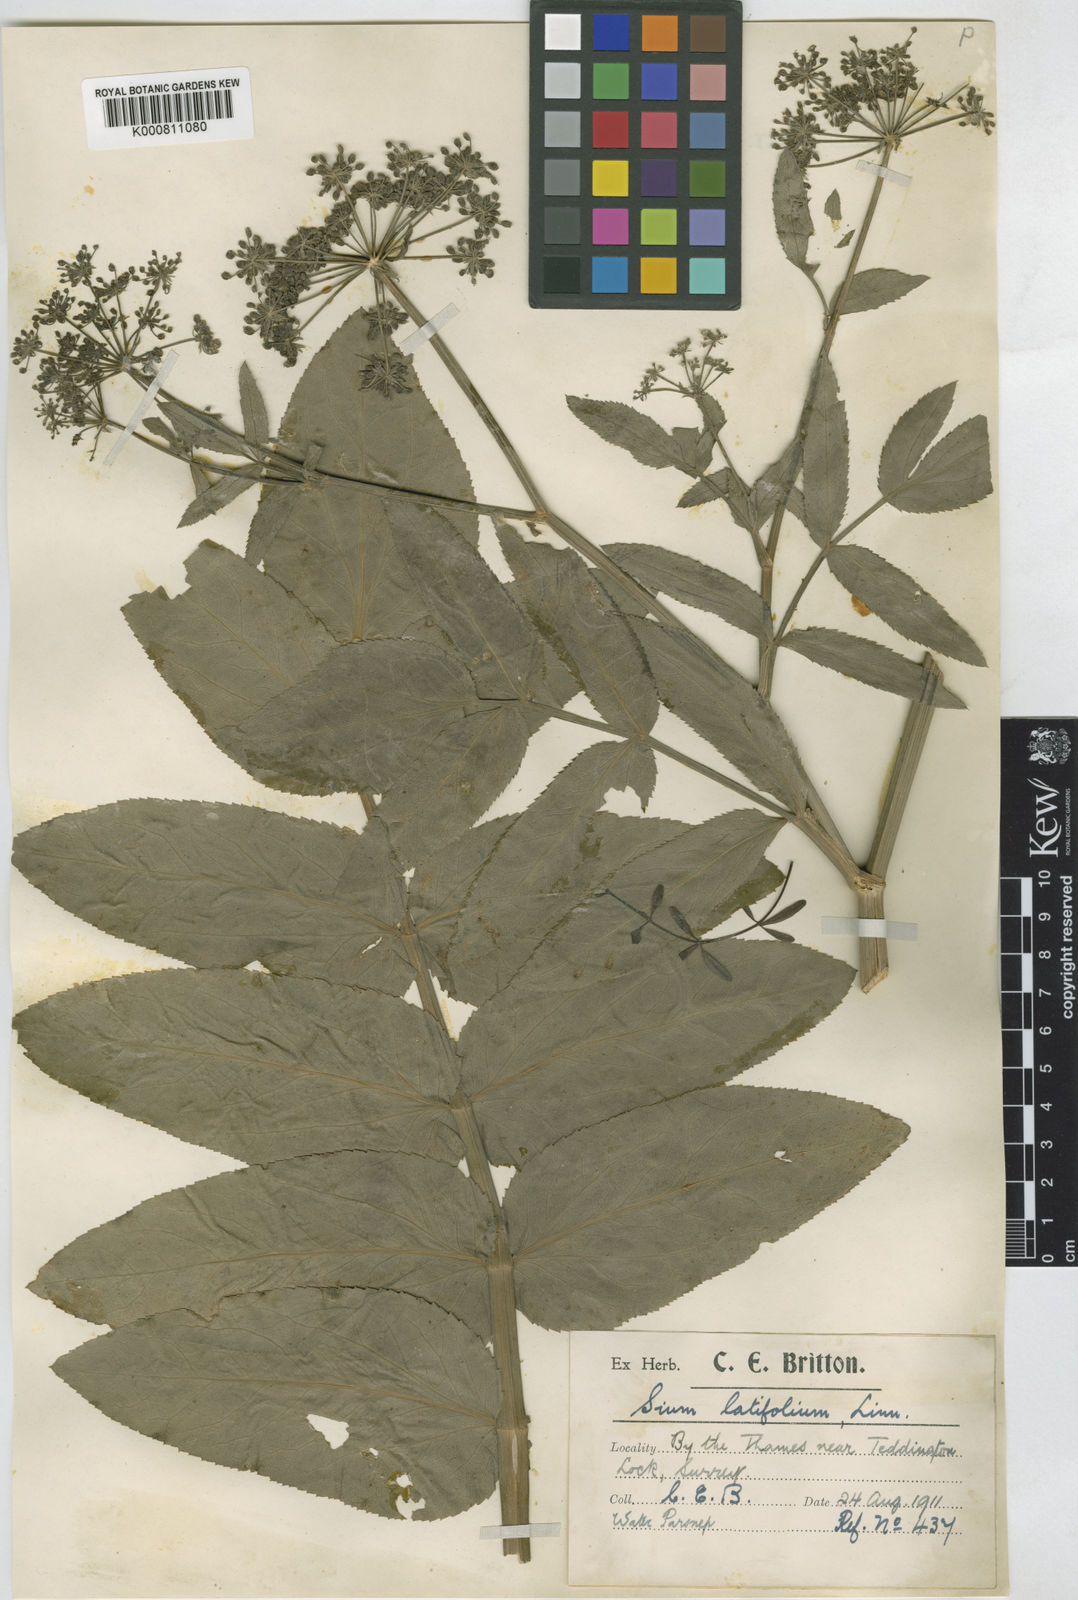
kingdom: Plantae
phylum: Tracheophyta
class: Magnoliopsida
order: Apiales
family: Apiaceae
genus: Sium
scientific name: Sium latifolium
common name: Greater water-parsnip
